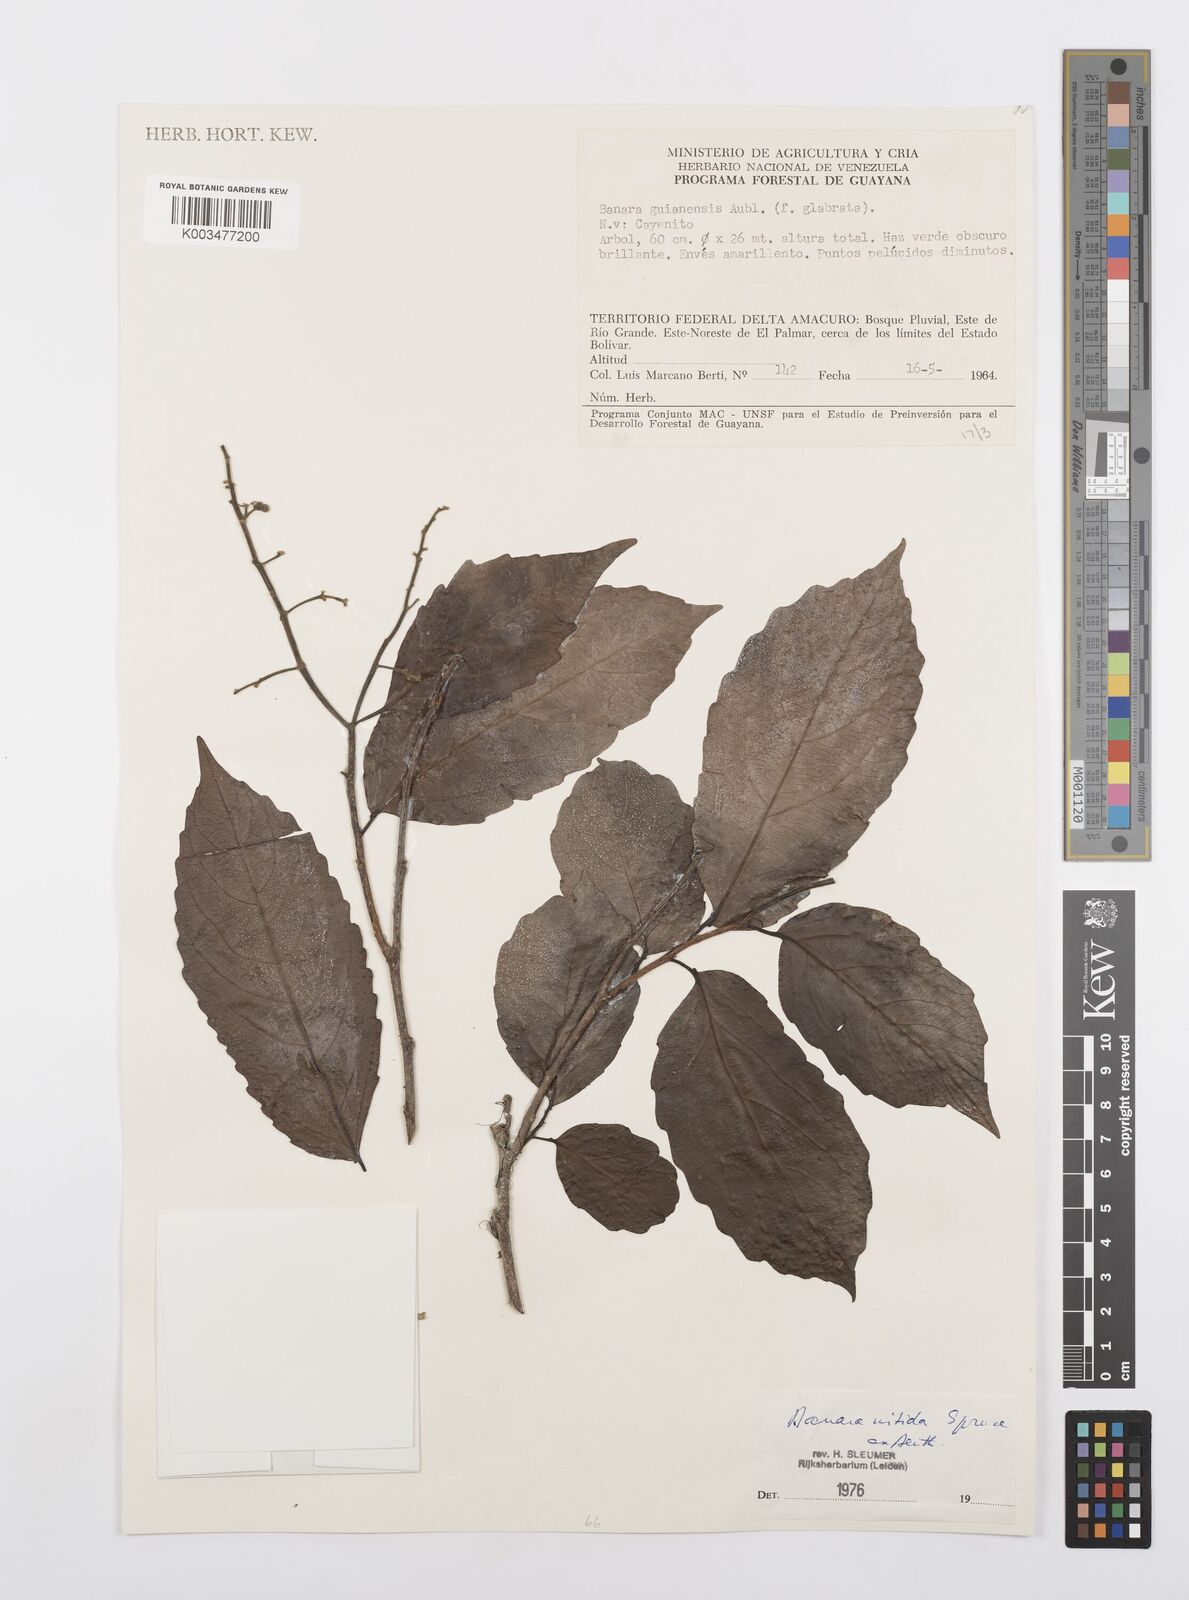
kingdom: Plantae
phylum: Tracheophyta
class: Magnoliopsida
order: Malpighiales
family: Salicaceae
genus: Banara
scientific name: Banara nitida
